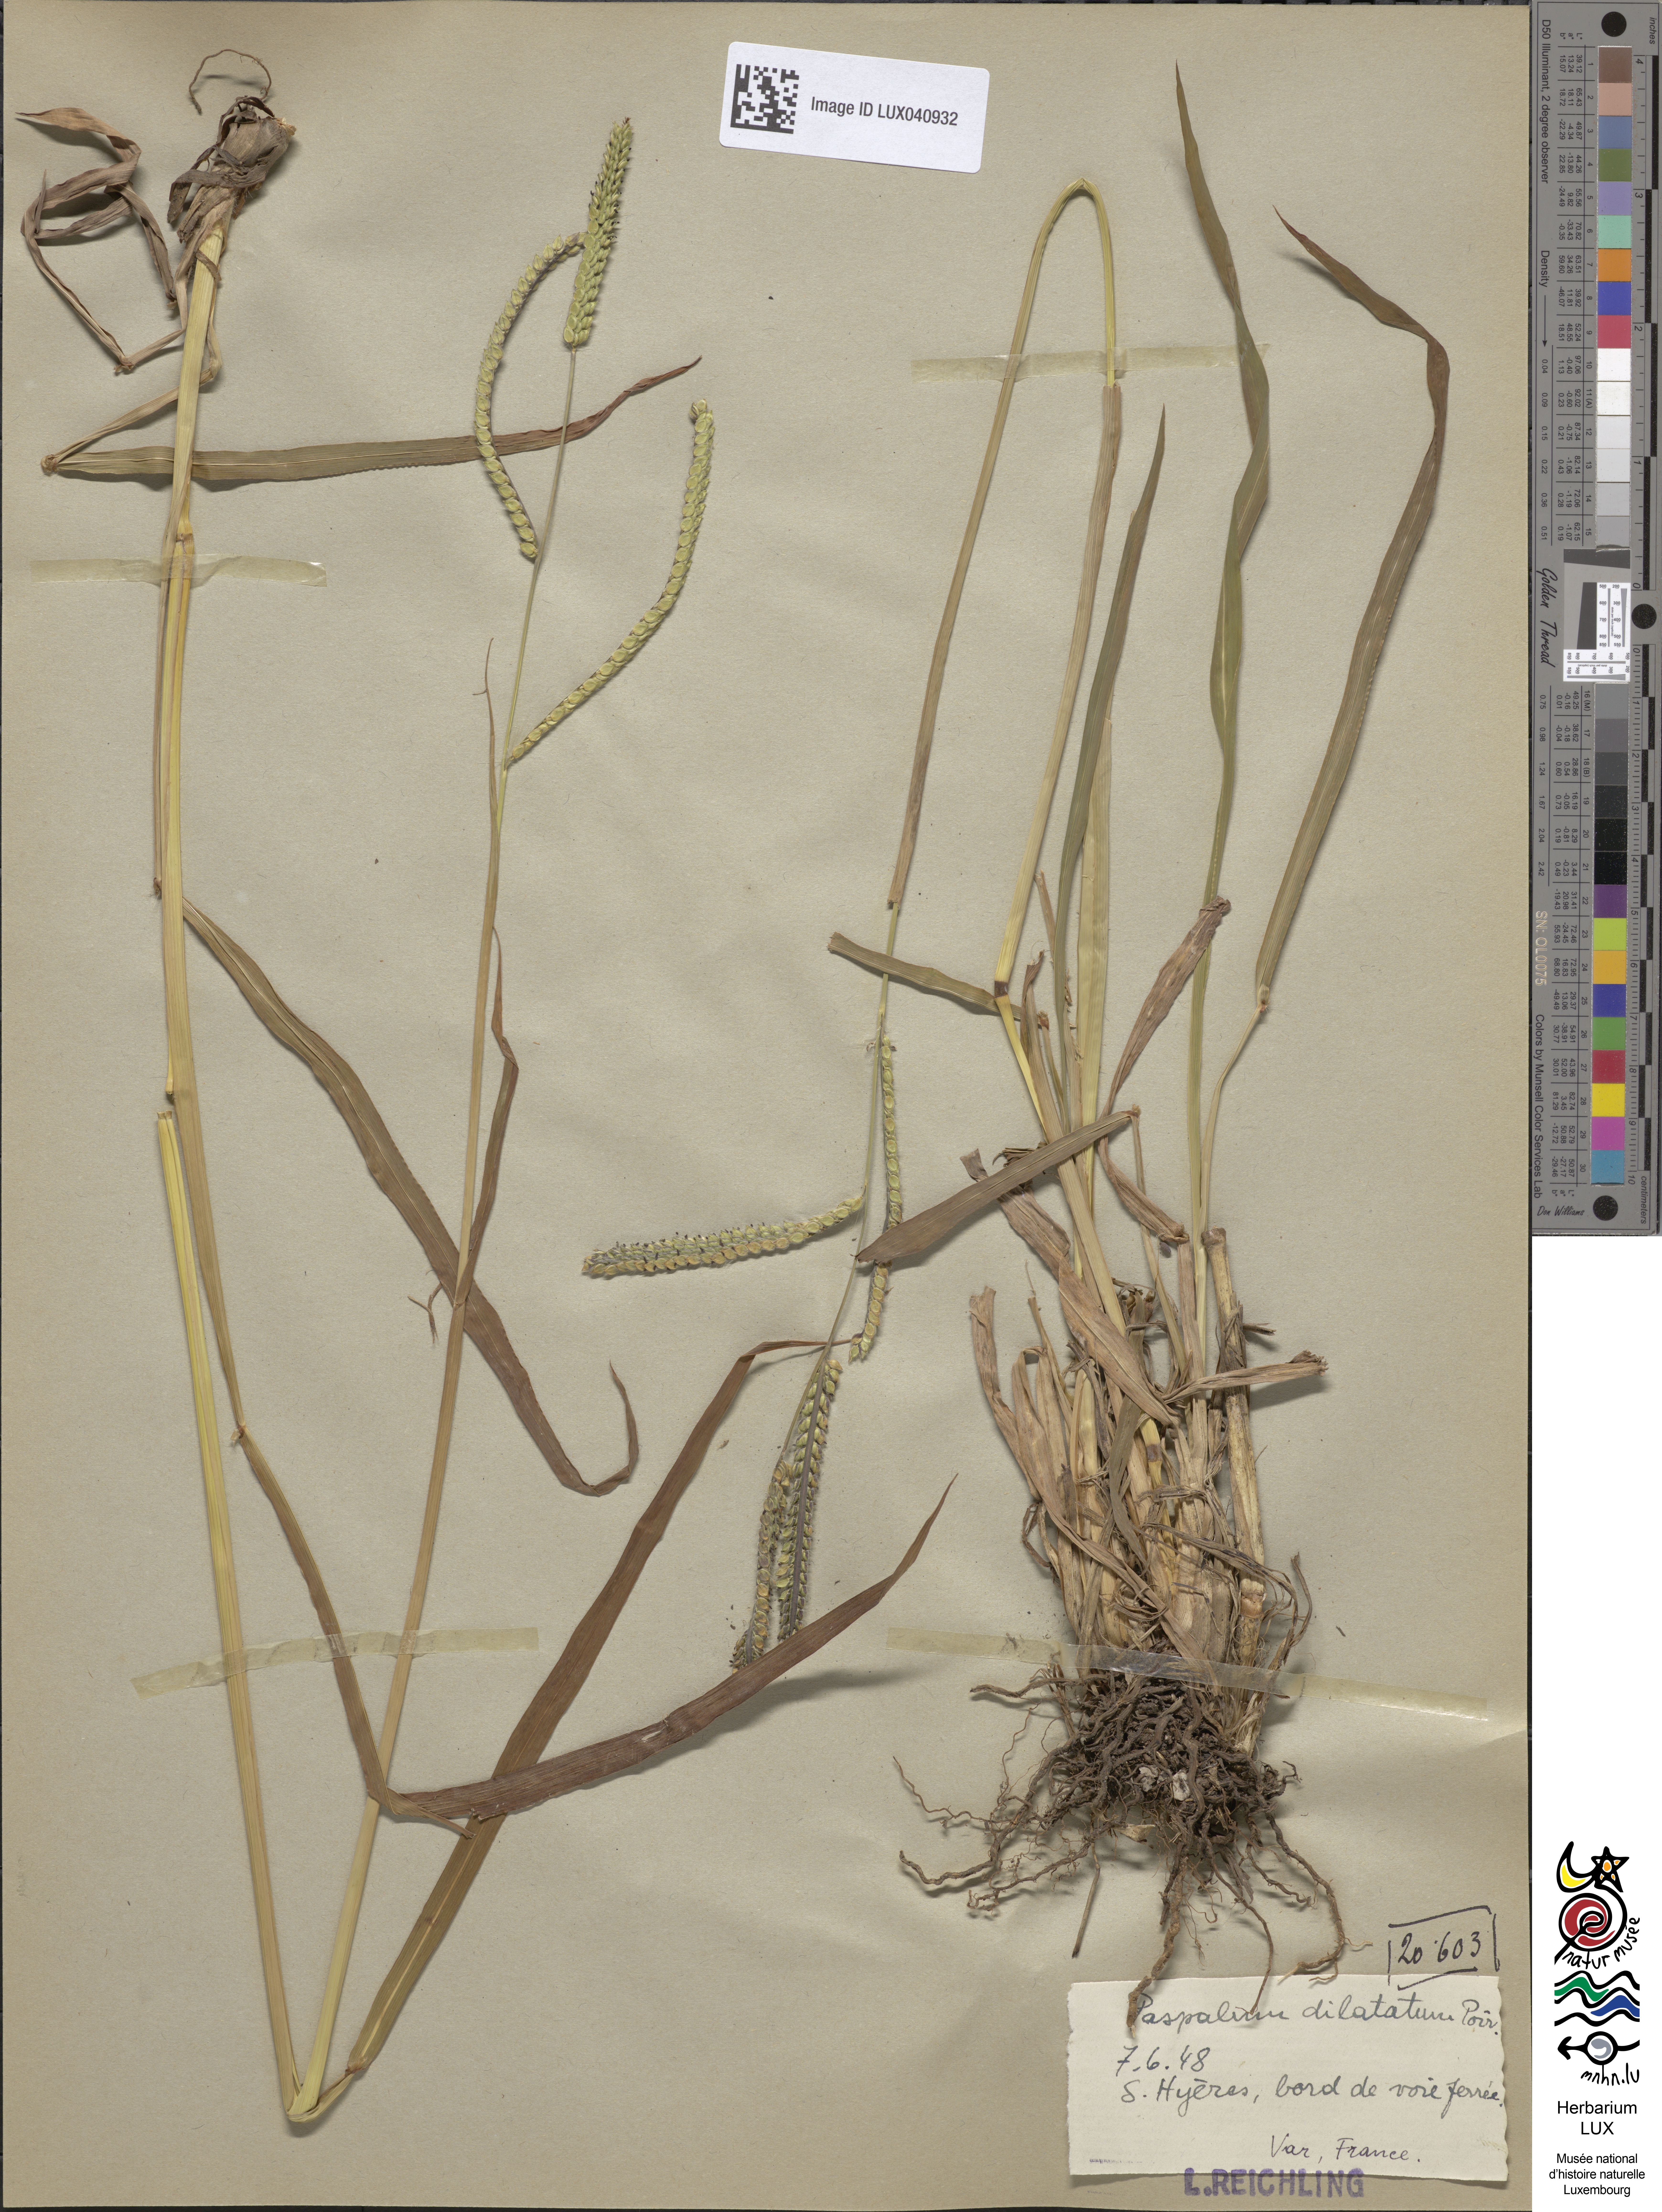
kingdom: Plantae
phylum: Tracheophyta
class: Liliopsida
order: Poales
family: Poaceae
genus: Paspalum
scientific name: Paspalum dilatatum
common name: Dallisgrass
